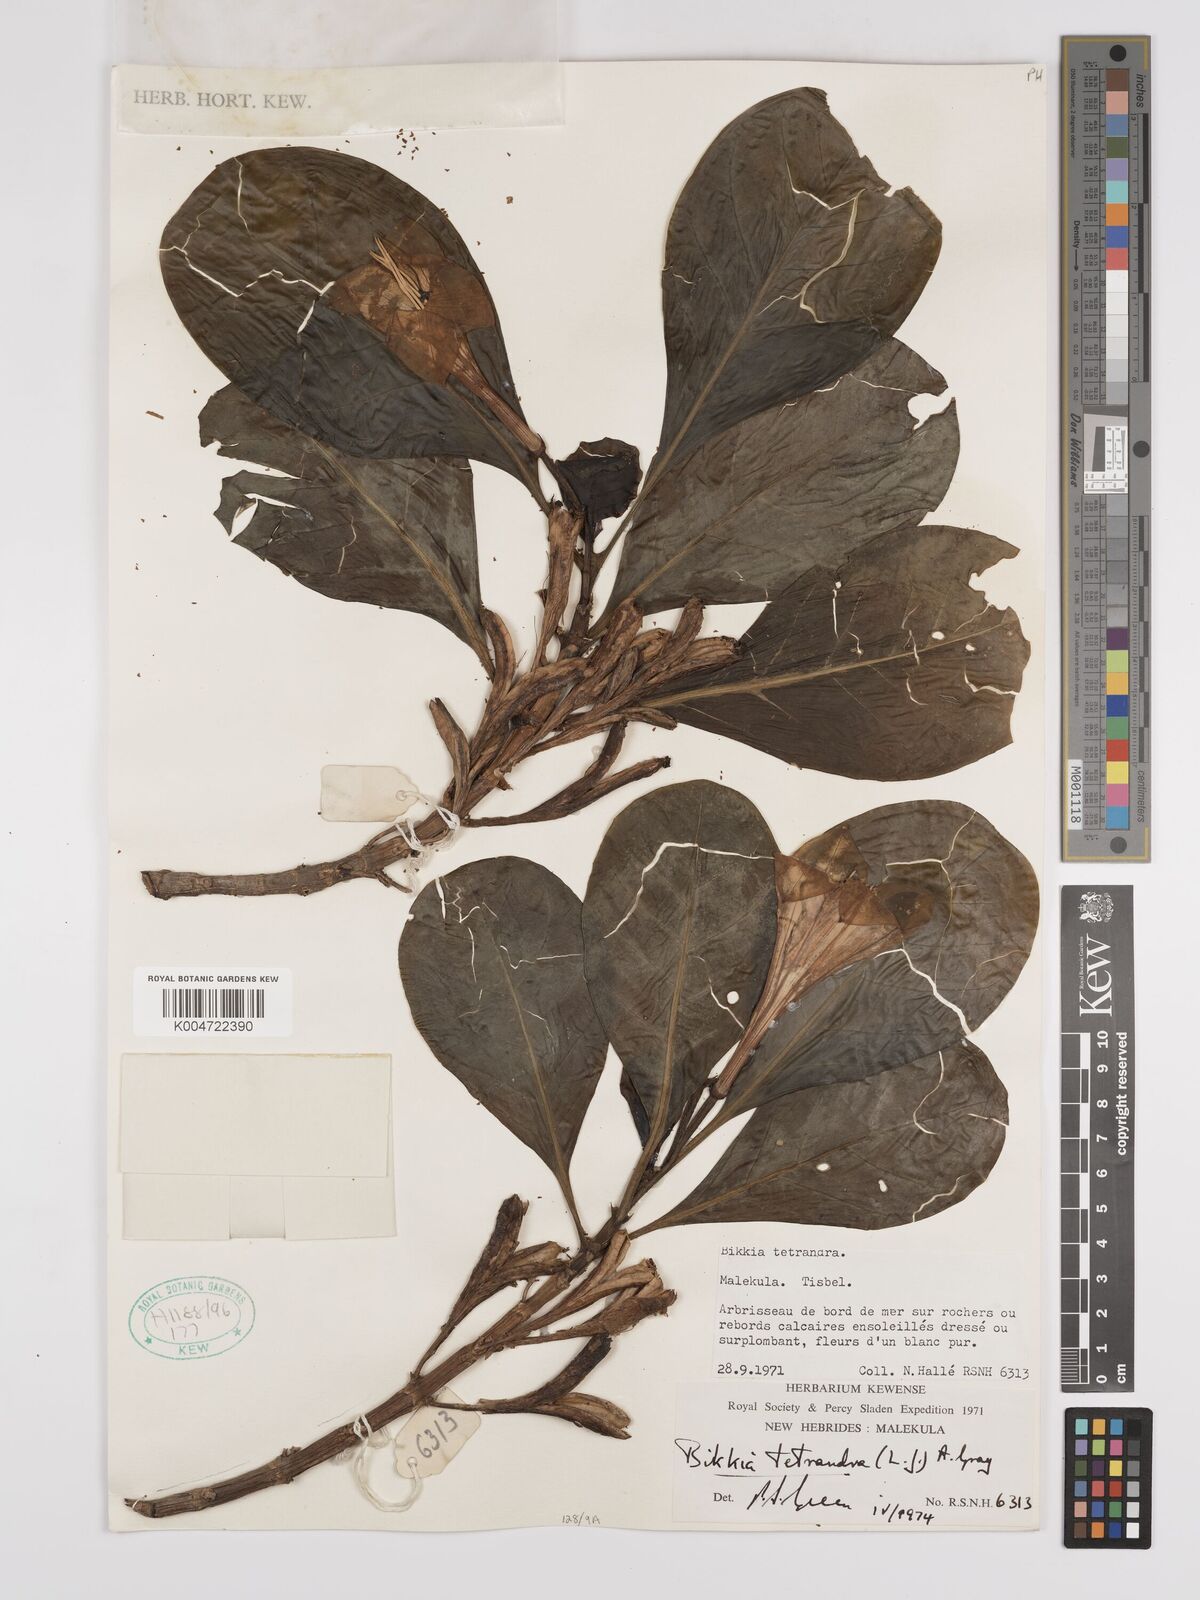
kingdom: Plantae
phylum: Tracheophyta
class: Magnoliopsida
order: Gentianales
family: Rubiaceae
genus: Bikkia
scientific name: Bikkia
